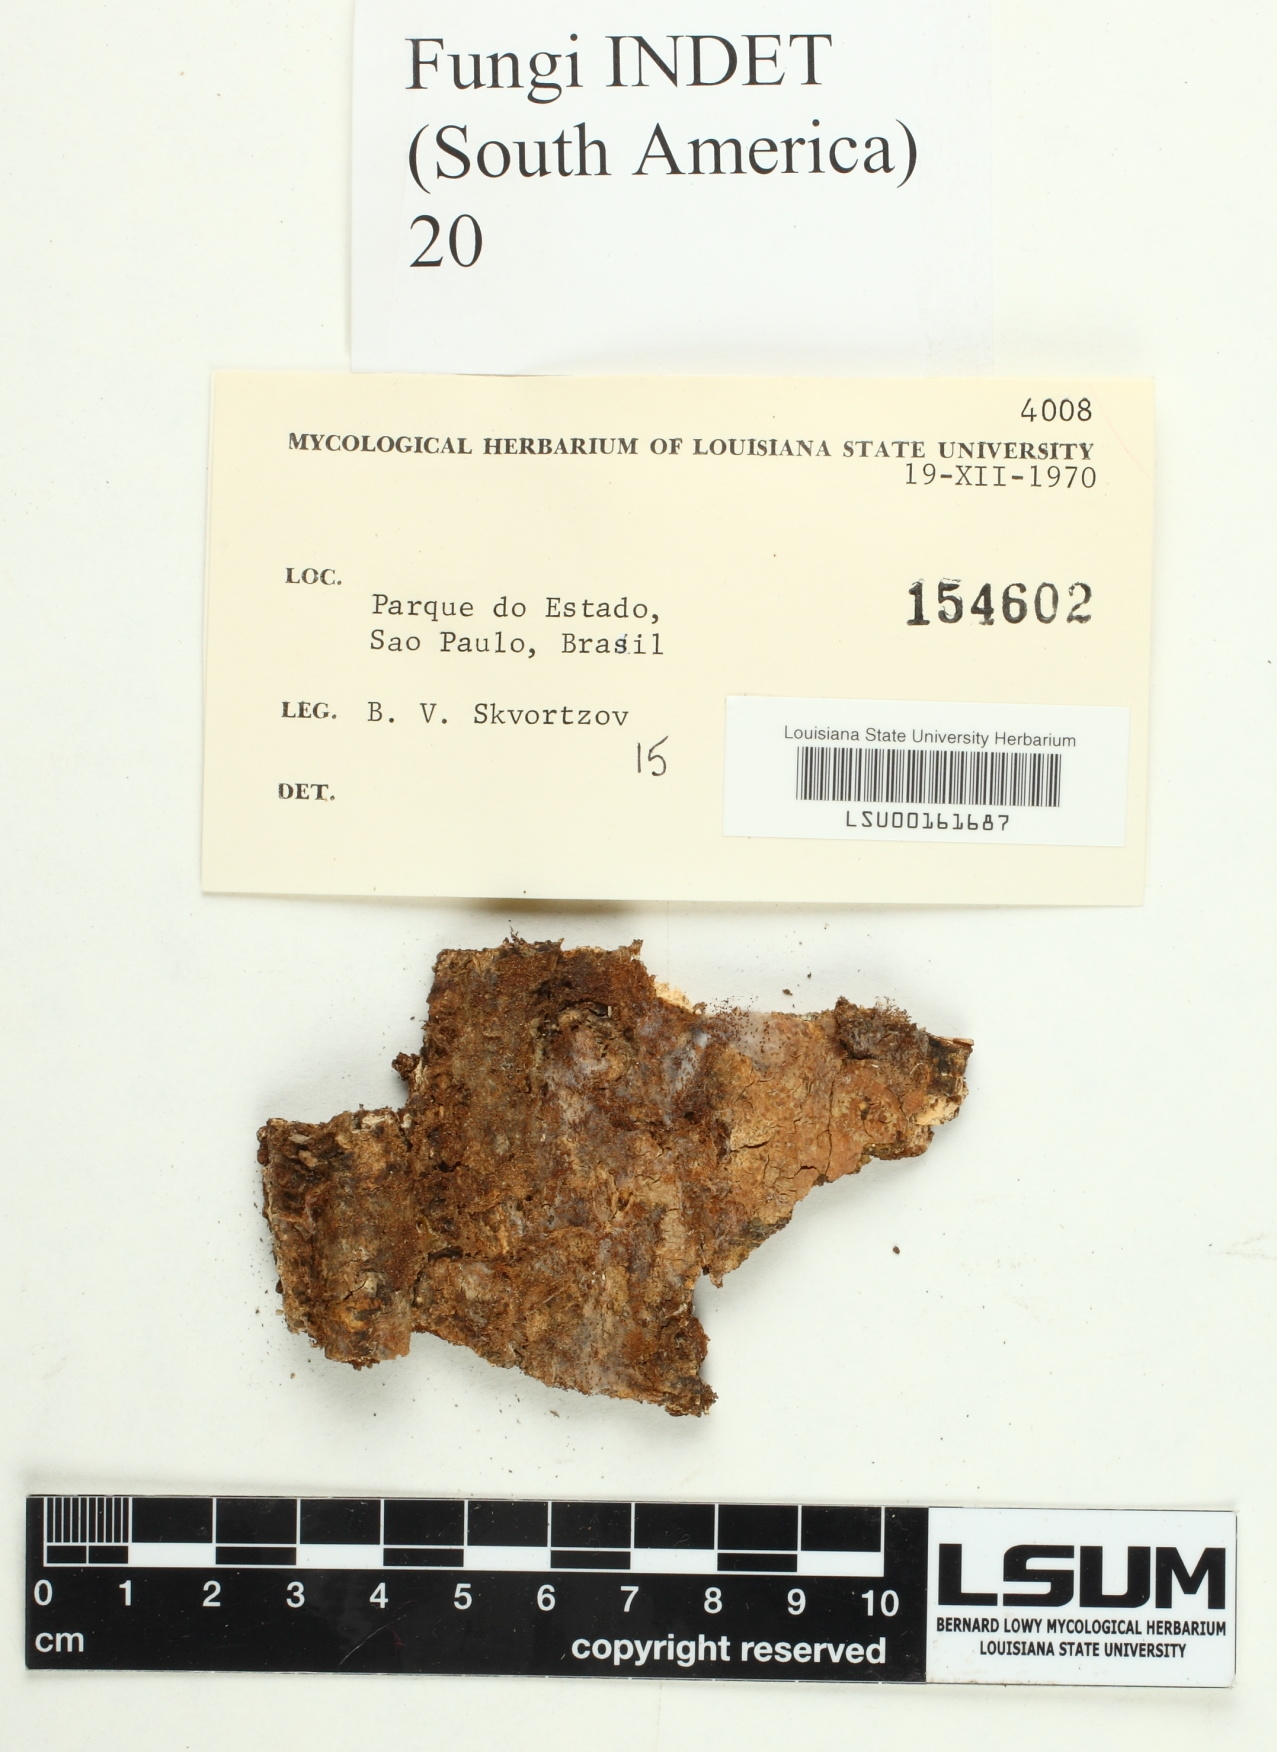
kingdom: Fungi
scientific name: Fungi
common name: Fungi
